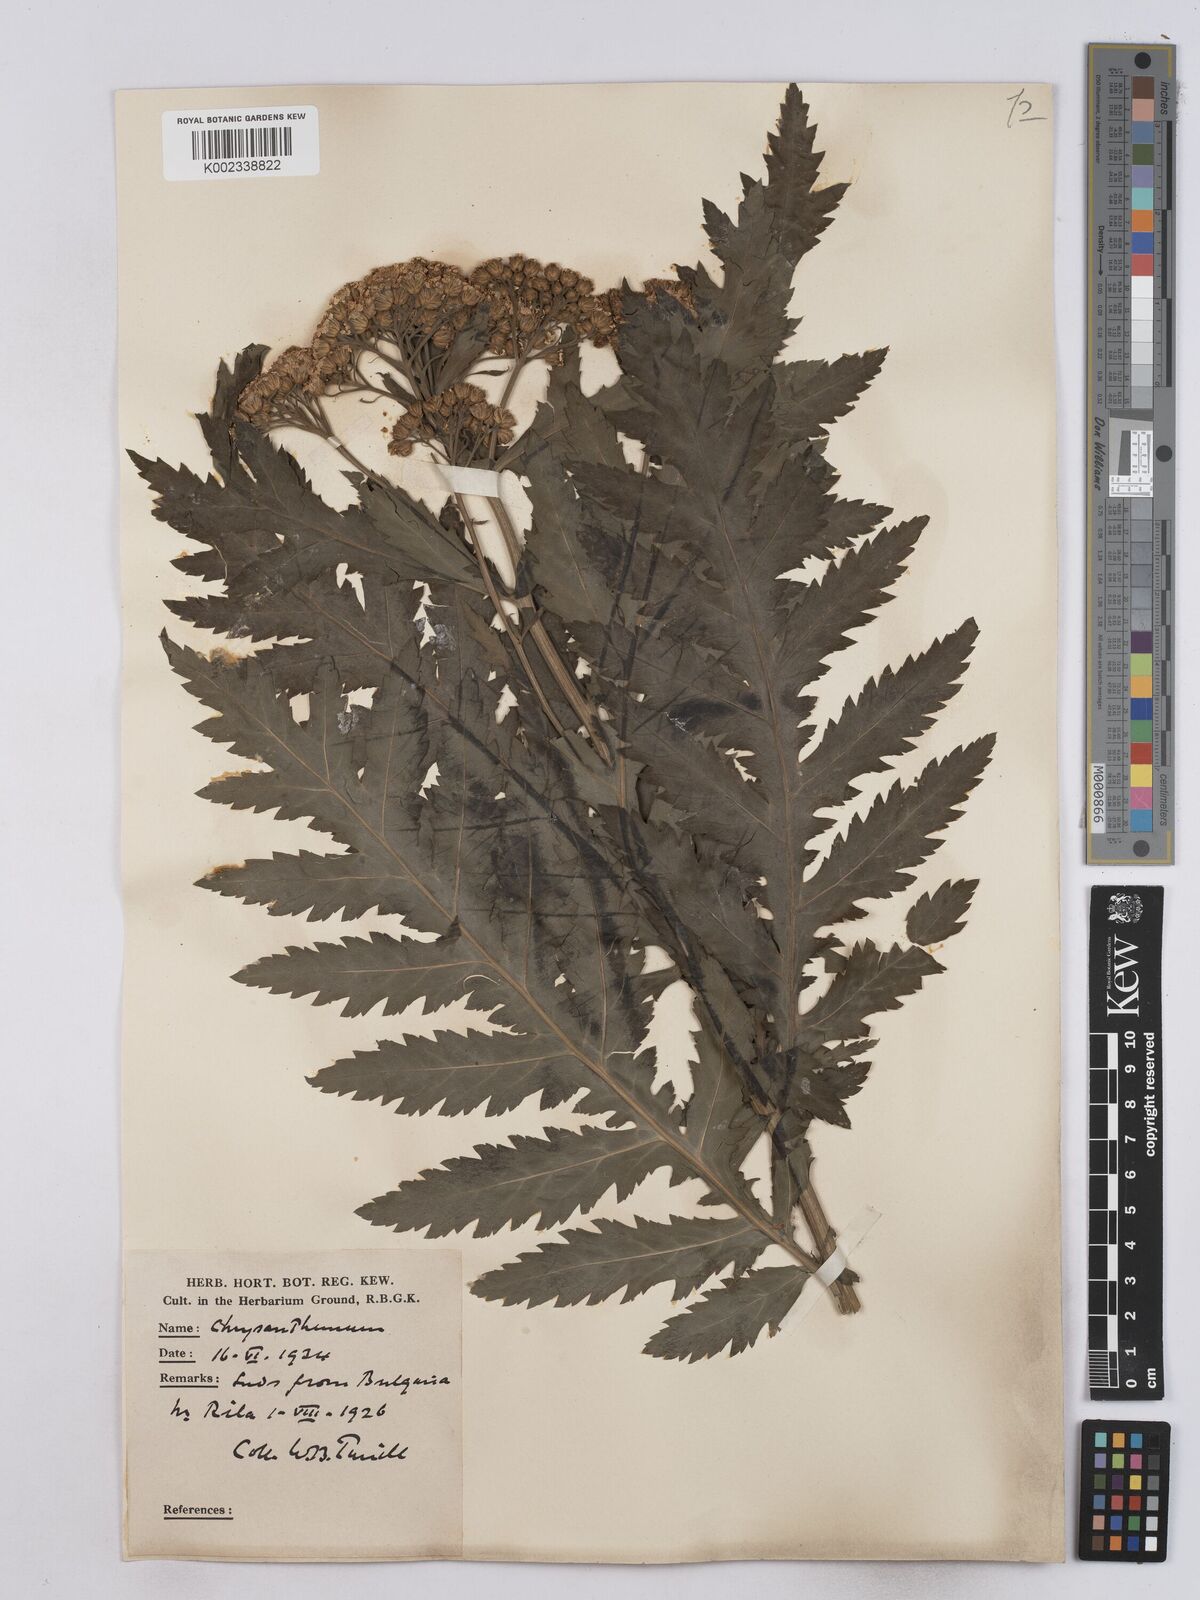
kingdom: Plantae
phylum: Tracheophyta
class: Magnoliopsida
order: Asterales
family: Asteraceae
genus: Tanacetum
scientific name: Tanacetum macrophyllum
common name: Rayed tansy
